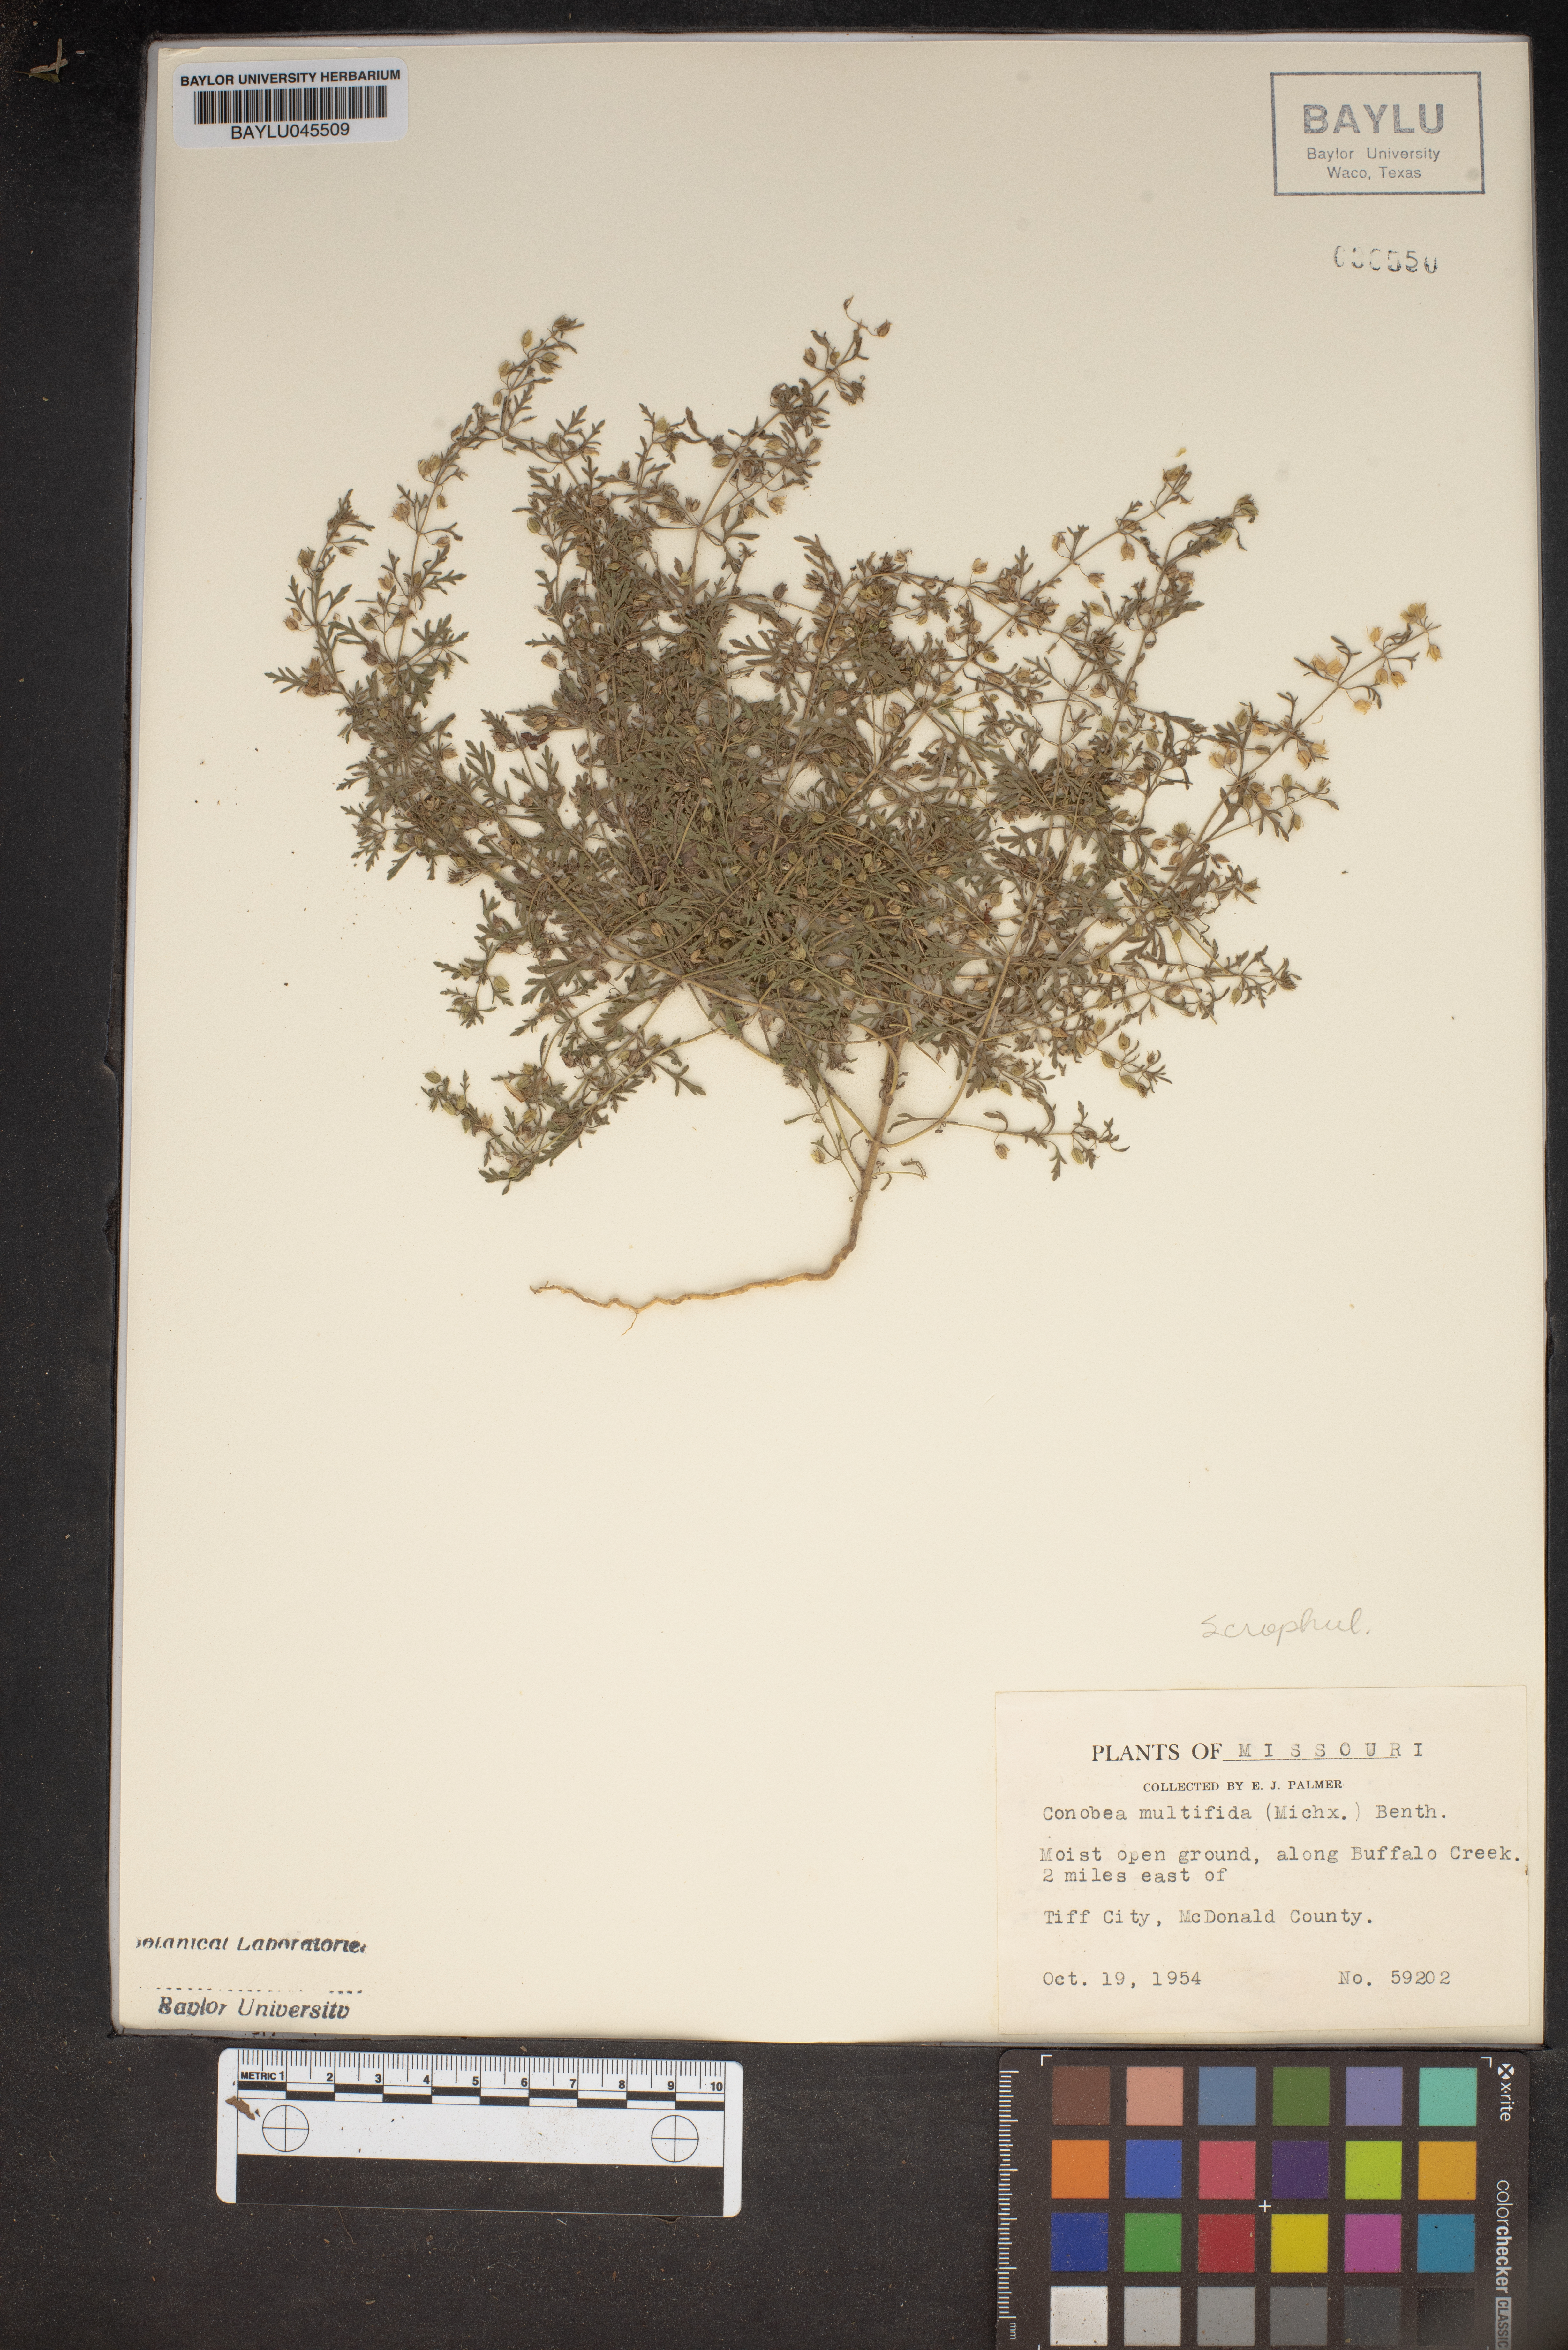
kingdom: Plantae
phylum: Tracheophyta
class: Magnoliopsida
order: Lamiales
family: Plantaginaceae
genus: Leucospora
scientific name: Leucospora multifida
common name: Narrow-leaf paleseed
